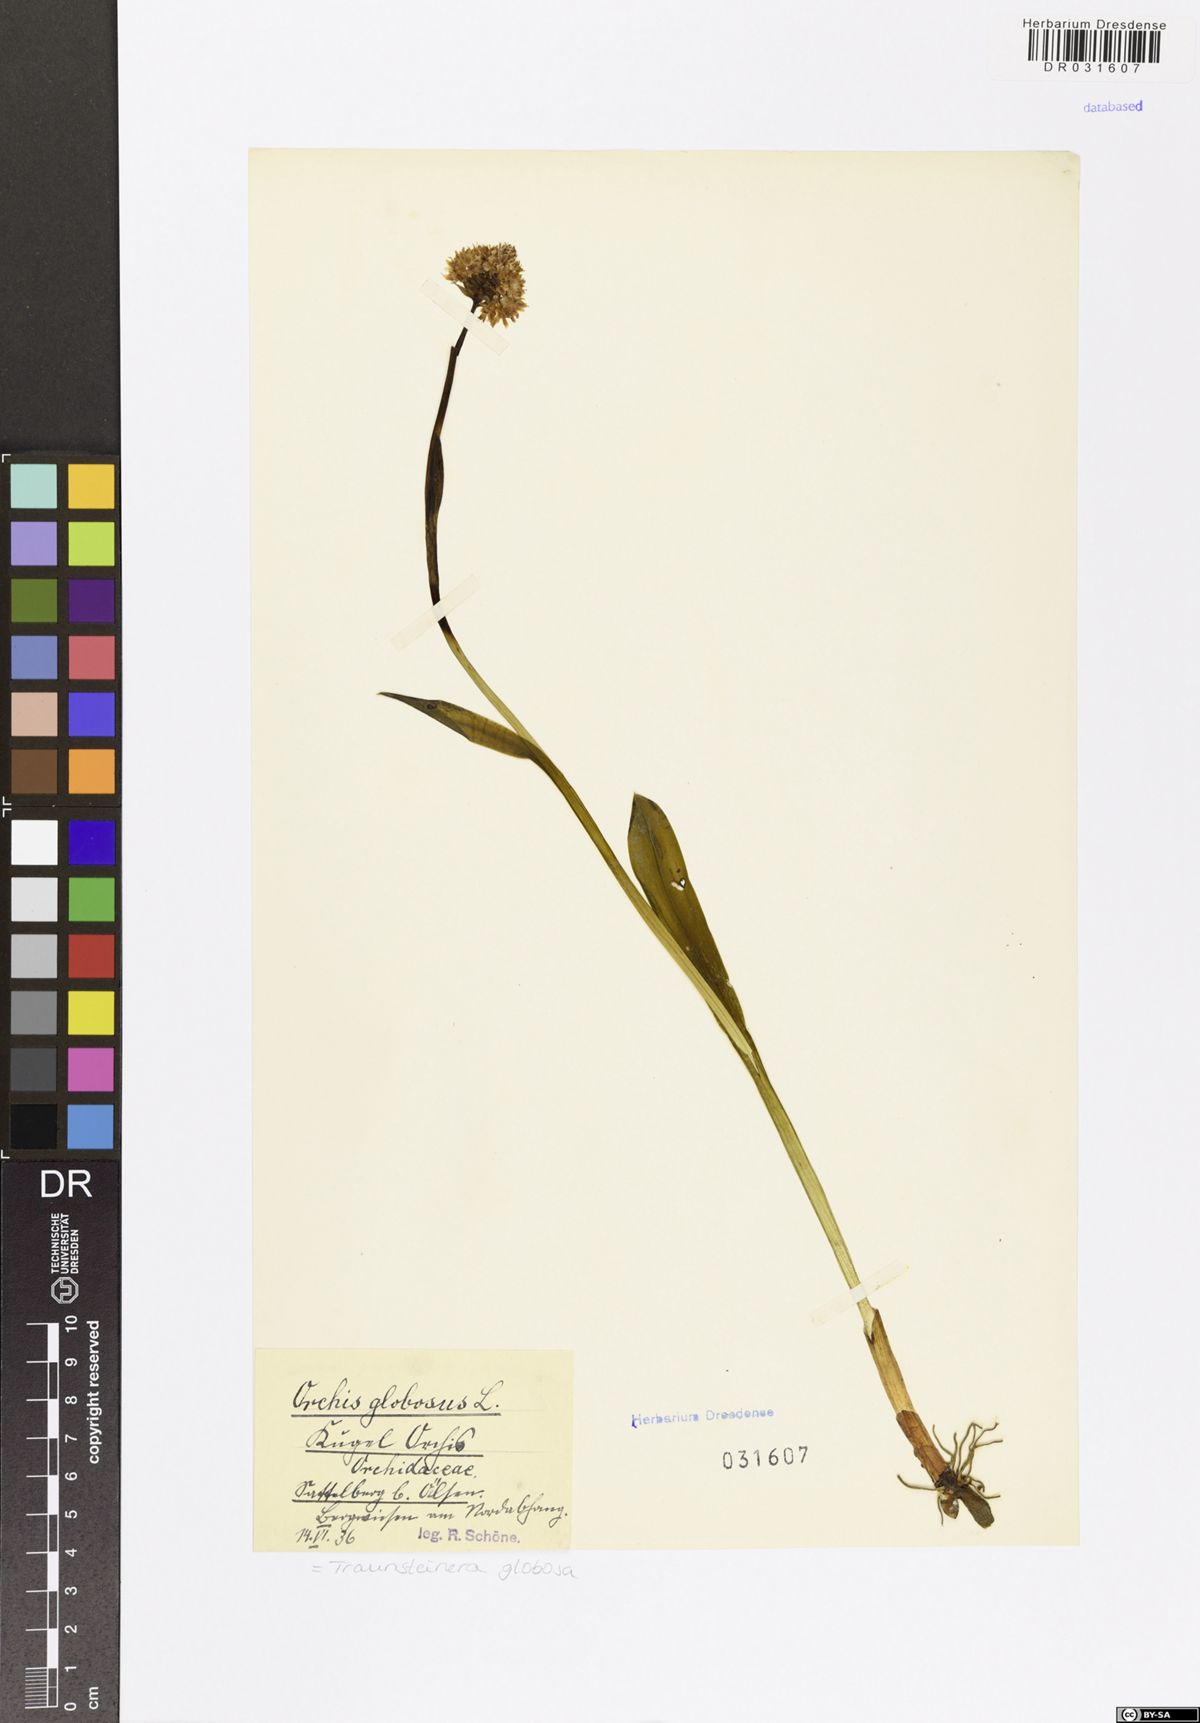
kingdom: Plantae
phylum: Tracheophyta
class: Liliopsida
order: Asparagales
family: Orchidaceae
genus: Traunsteinera
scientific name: Traunsteinera globosa
